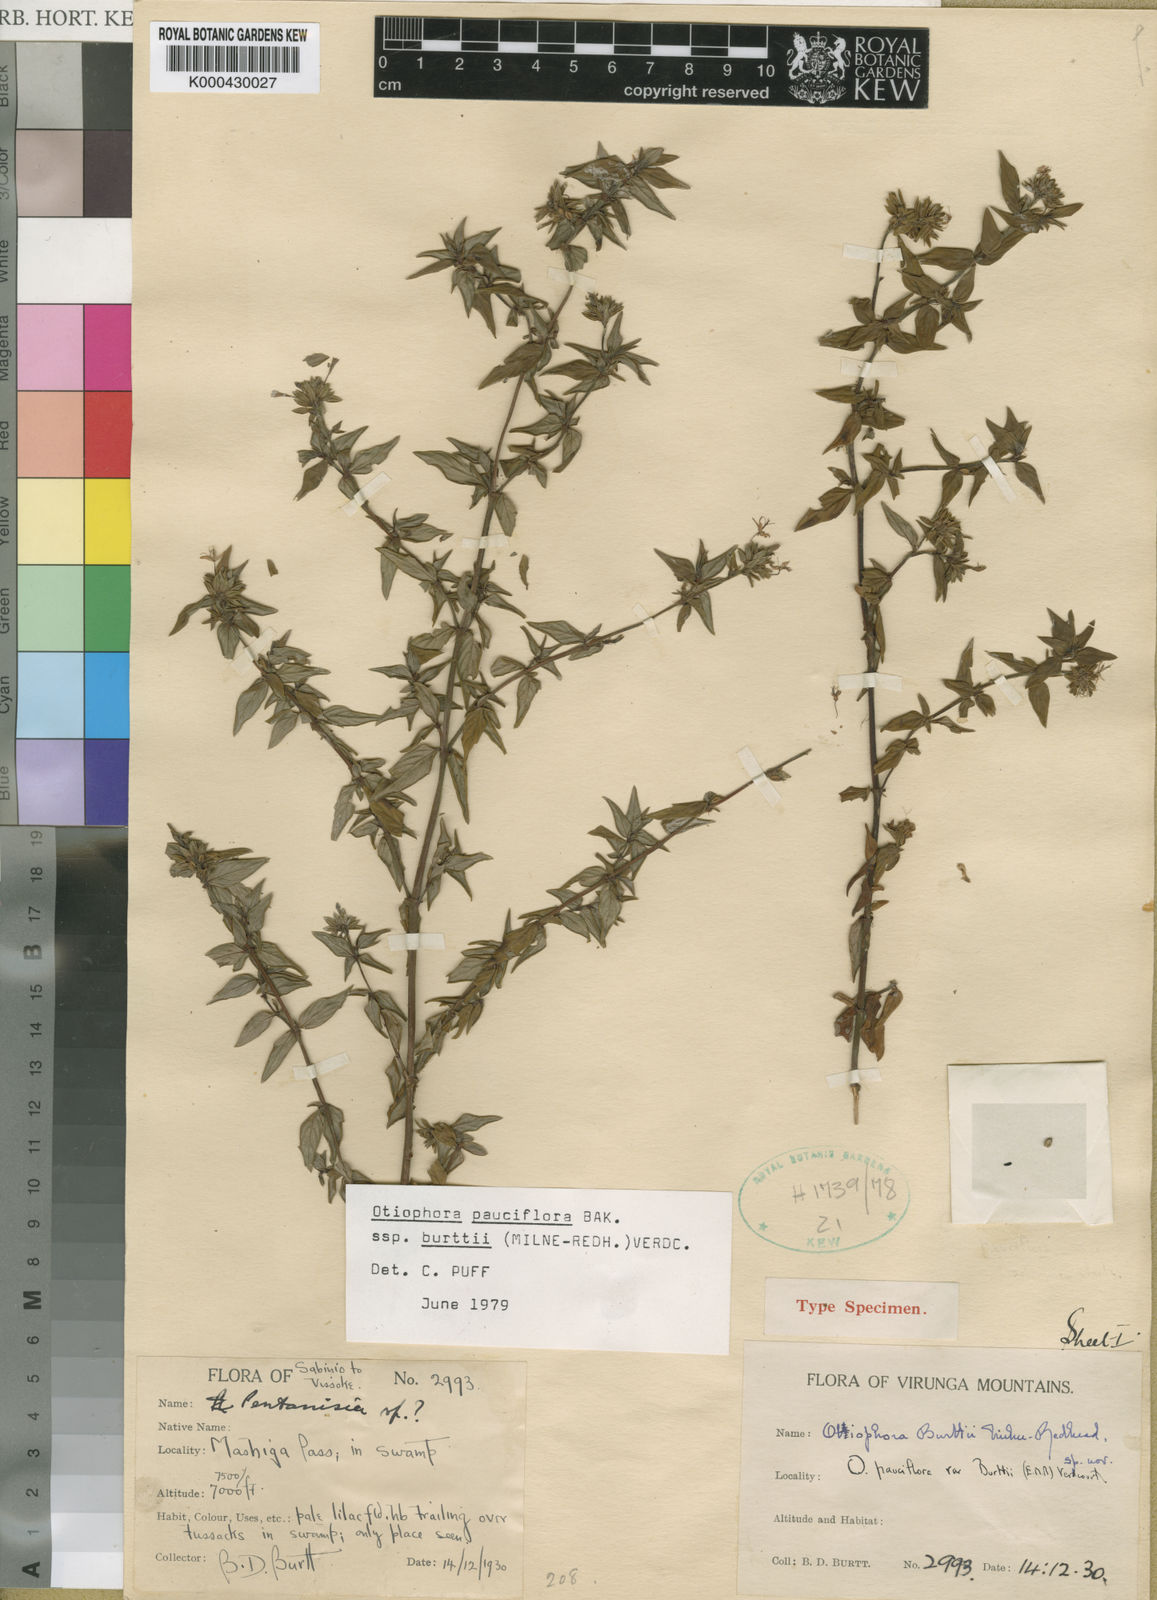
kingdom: Plantae
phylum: Tracheophyta
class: Magnoliopsida
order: Gentianales
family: Rubiaceae
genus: Otiophora
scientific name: Otiophora pauciflora
